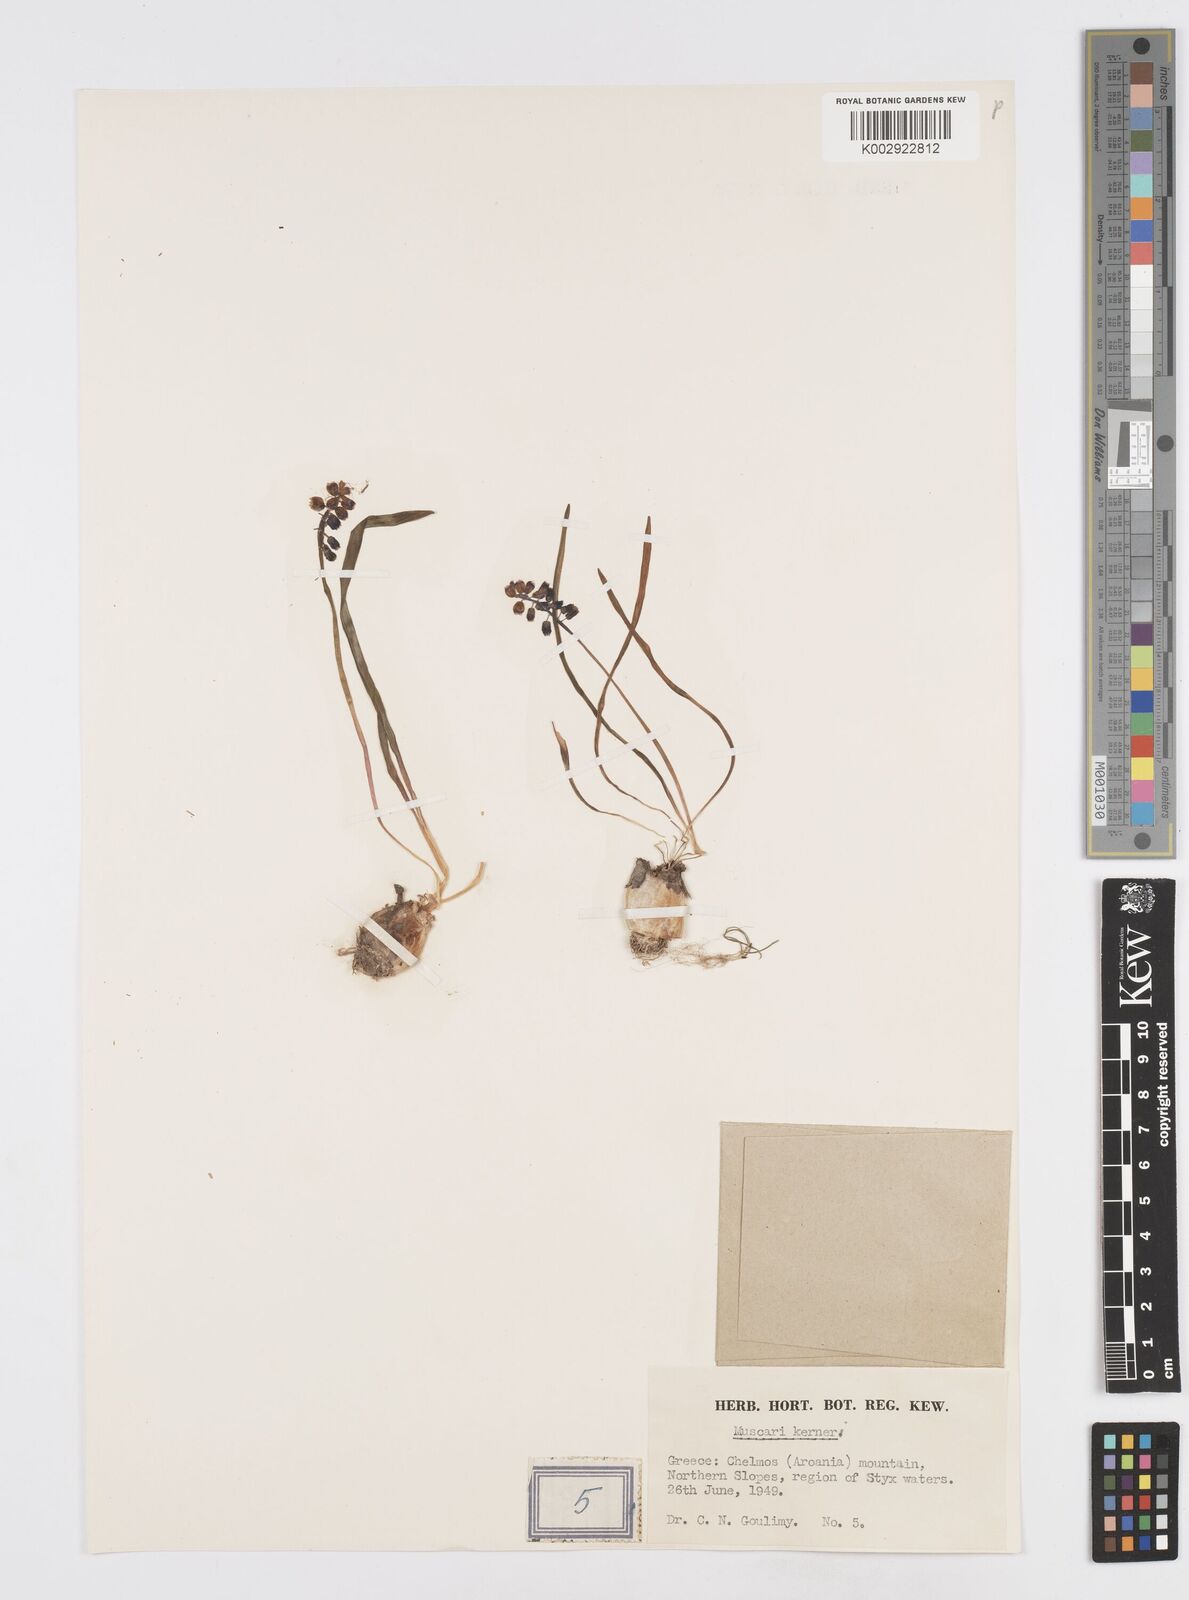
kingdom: Plantae
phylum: Tracheophyta
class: Liliopsida
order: Asparagales
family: Asparagaceae
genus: Muscari
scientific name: Muscari
